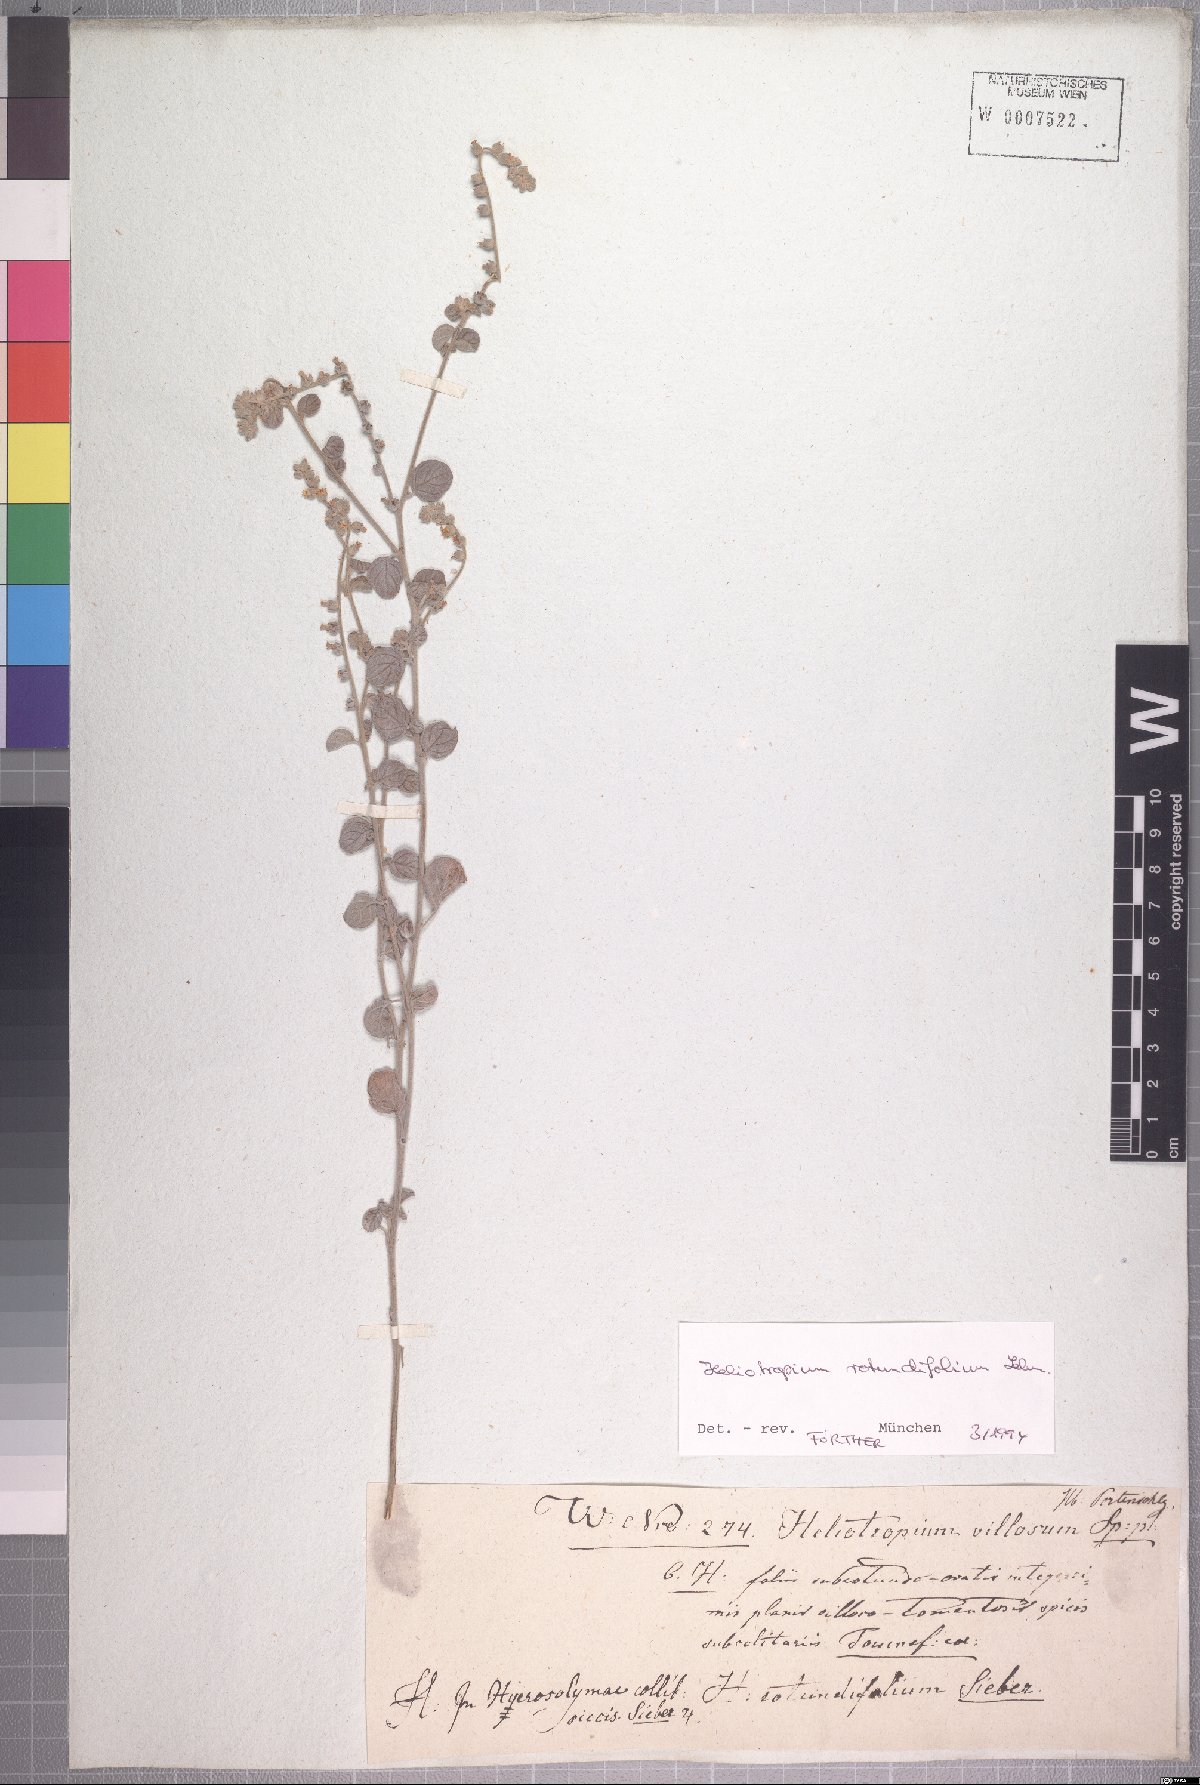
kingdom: Plantae
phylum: Tracheophyta
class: Magnoliopsida
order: Boraginales
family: Heliotropiaceae
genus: Heliotropium
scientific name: Heliotropium rotundifolium
